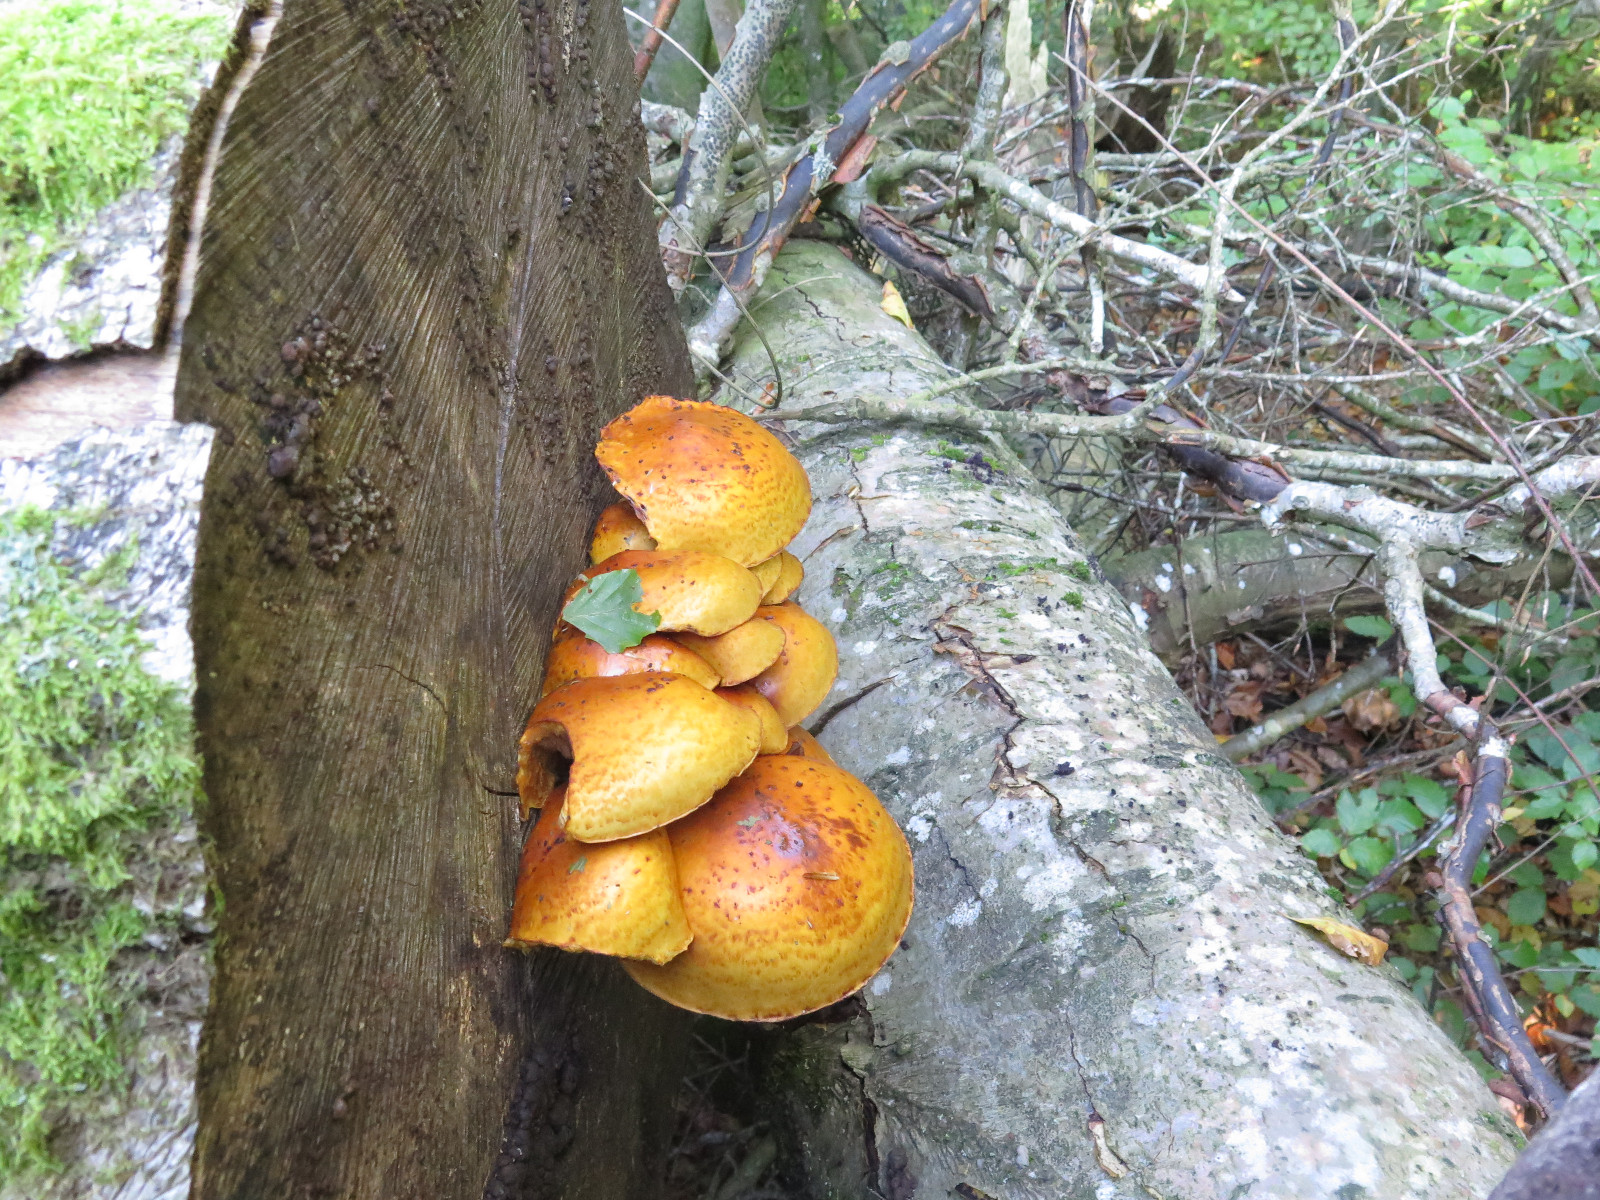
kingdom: Fungi
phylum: Basidiomycota
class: Agaricomycetes
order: Agaricales
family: Strophariaceae
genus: Pholiota
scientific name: Pholiota adiposa
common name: højtsiddende skælhat
